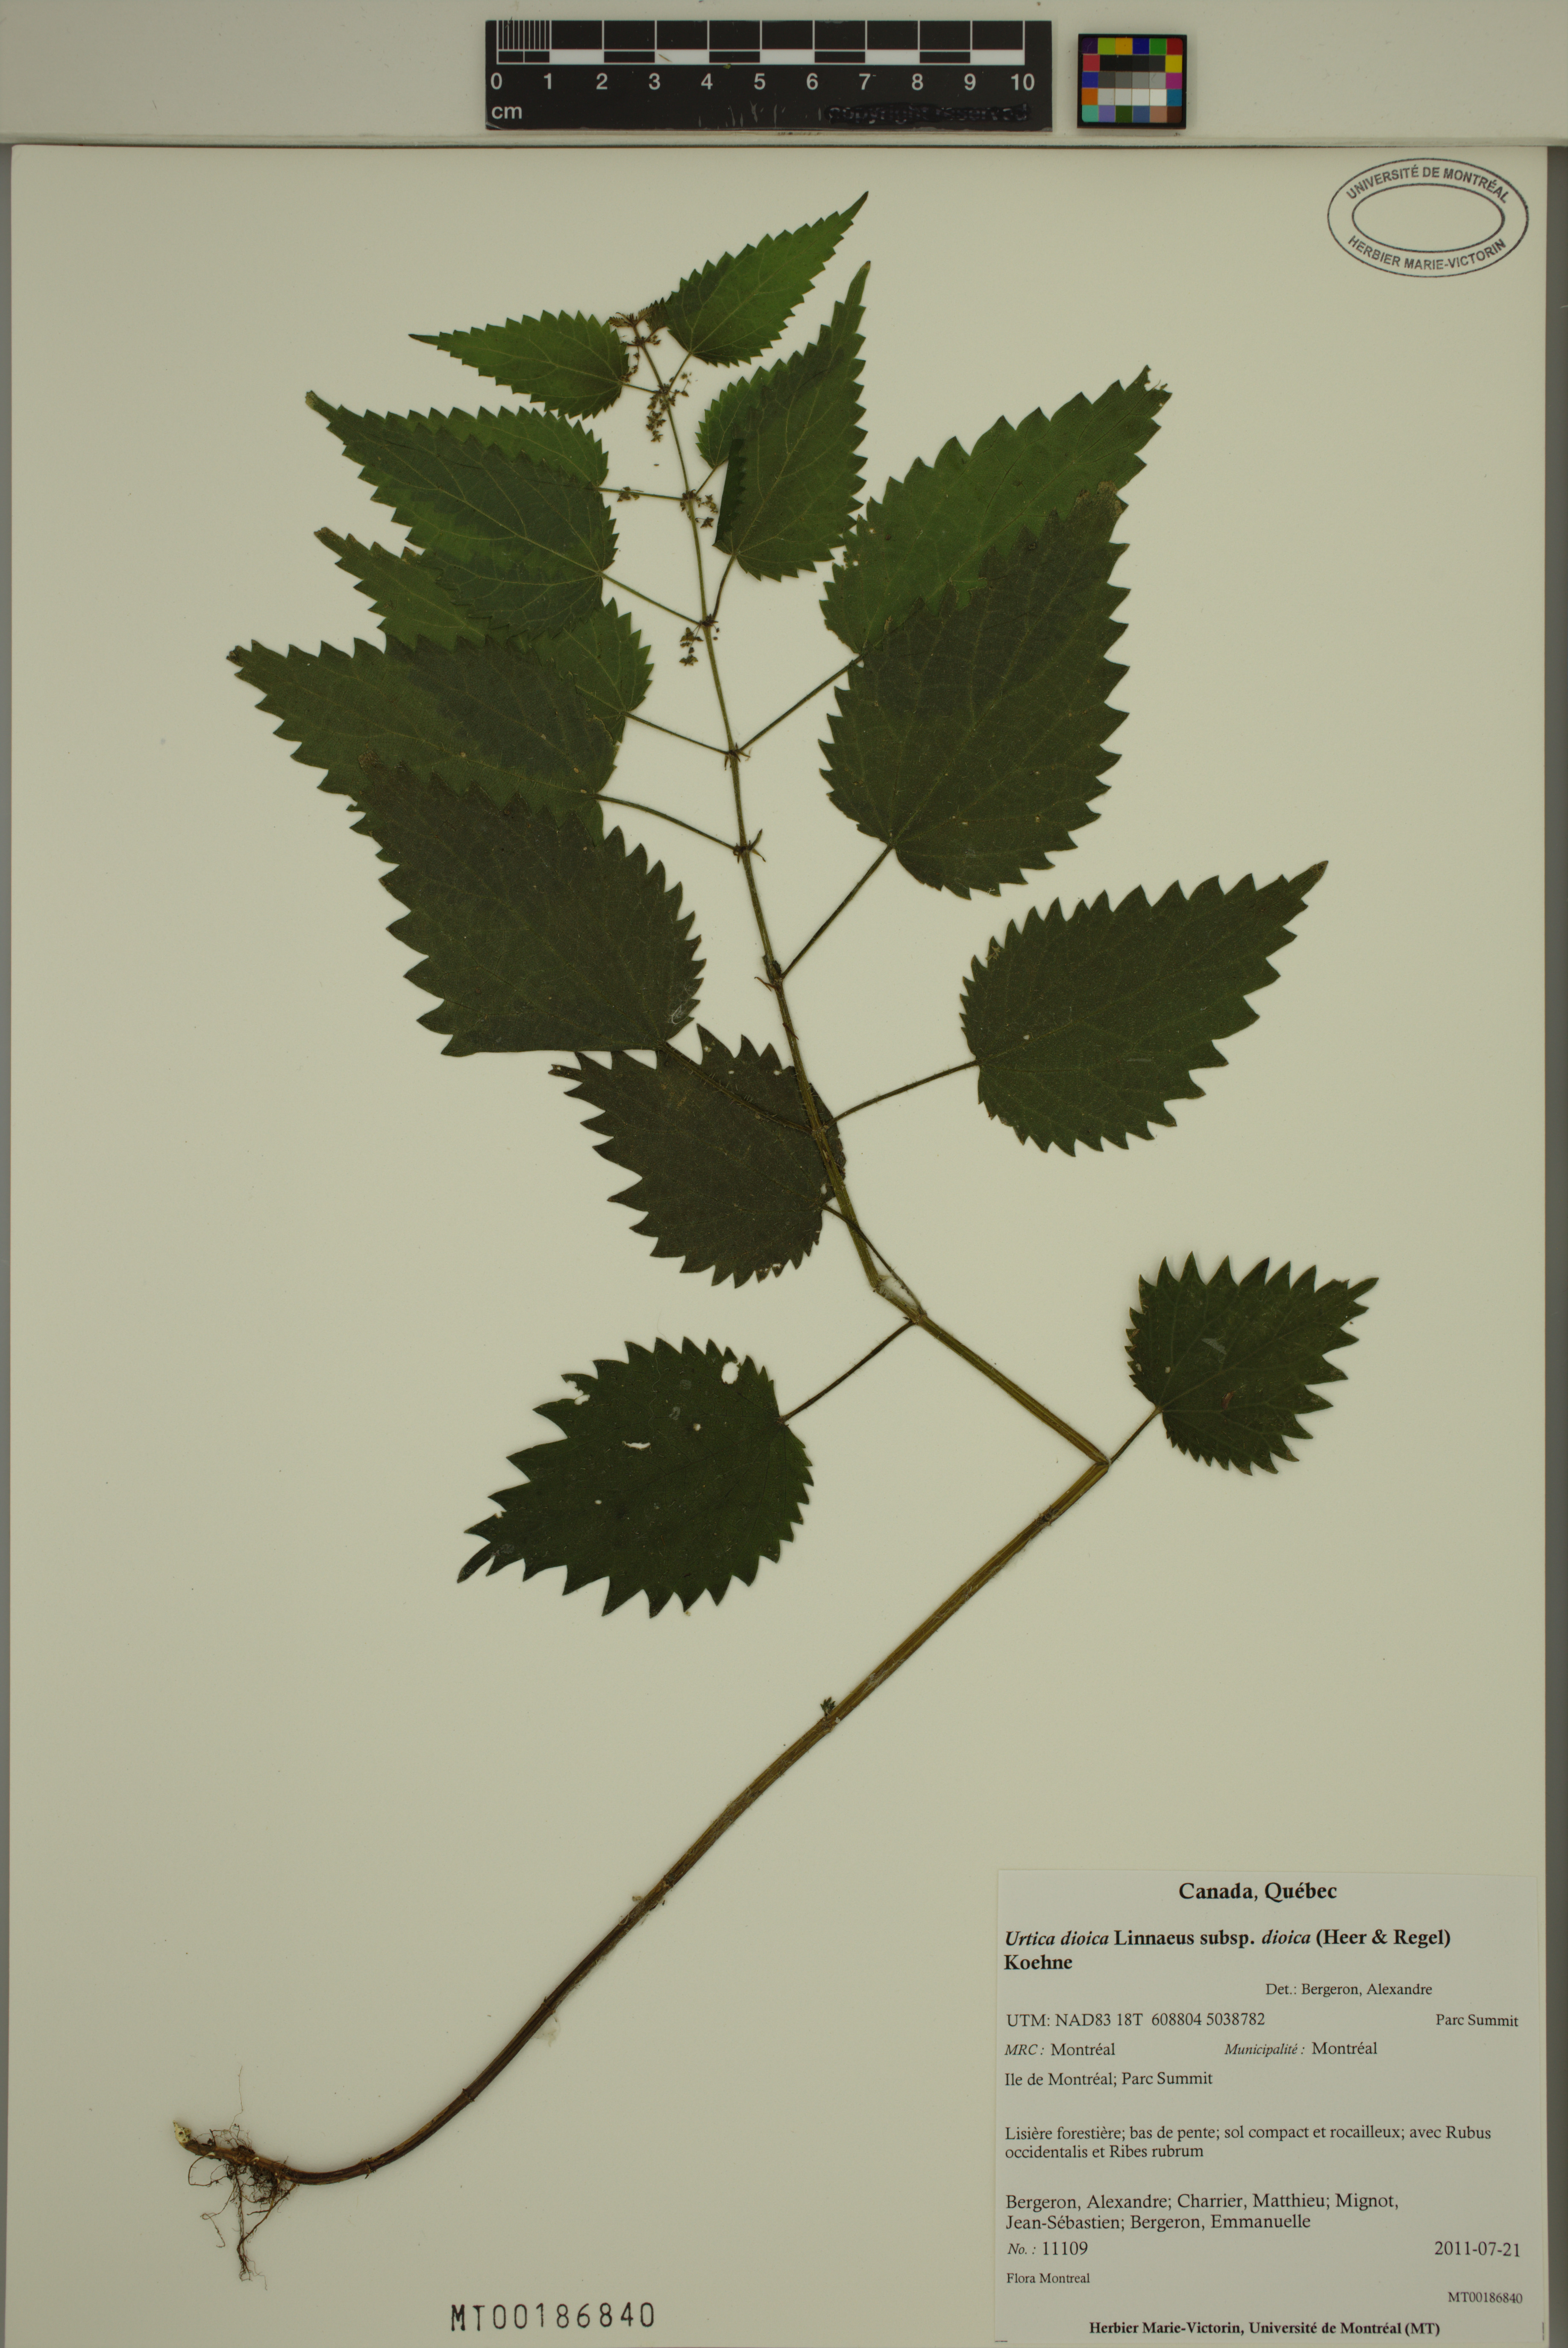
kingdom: Plantae
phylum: Tracheophyta
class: Magnoliopsida
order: Rosales
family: Urticaceae
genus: Urtica
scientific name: Urtica dioica
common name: Common nettle
